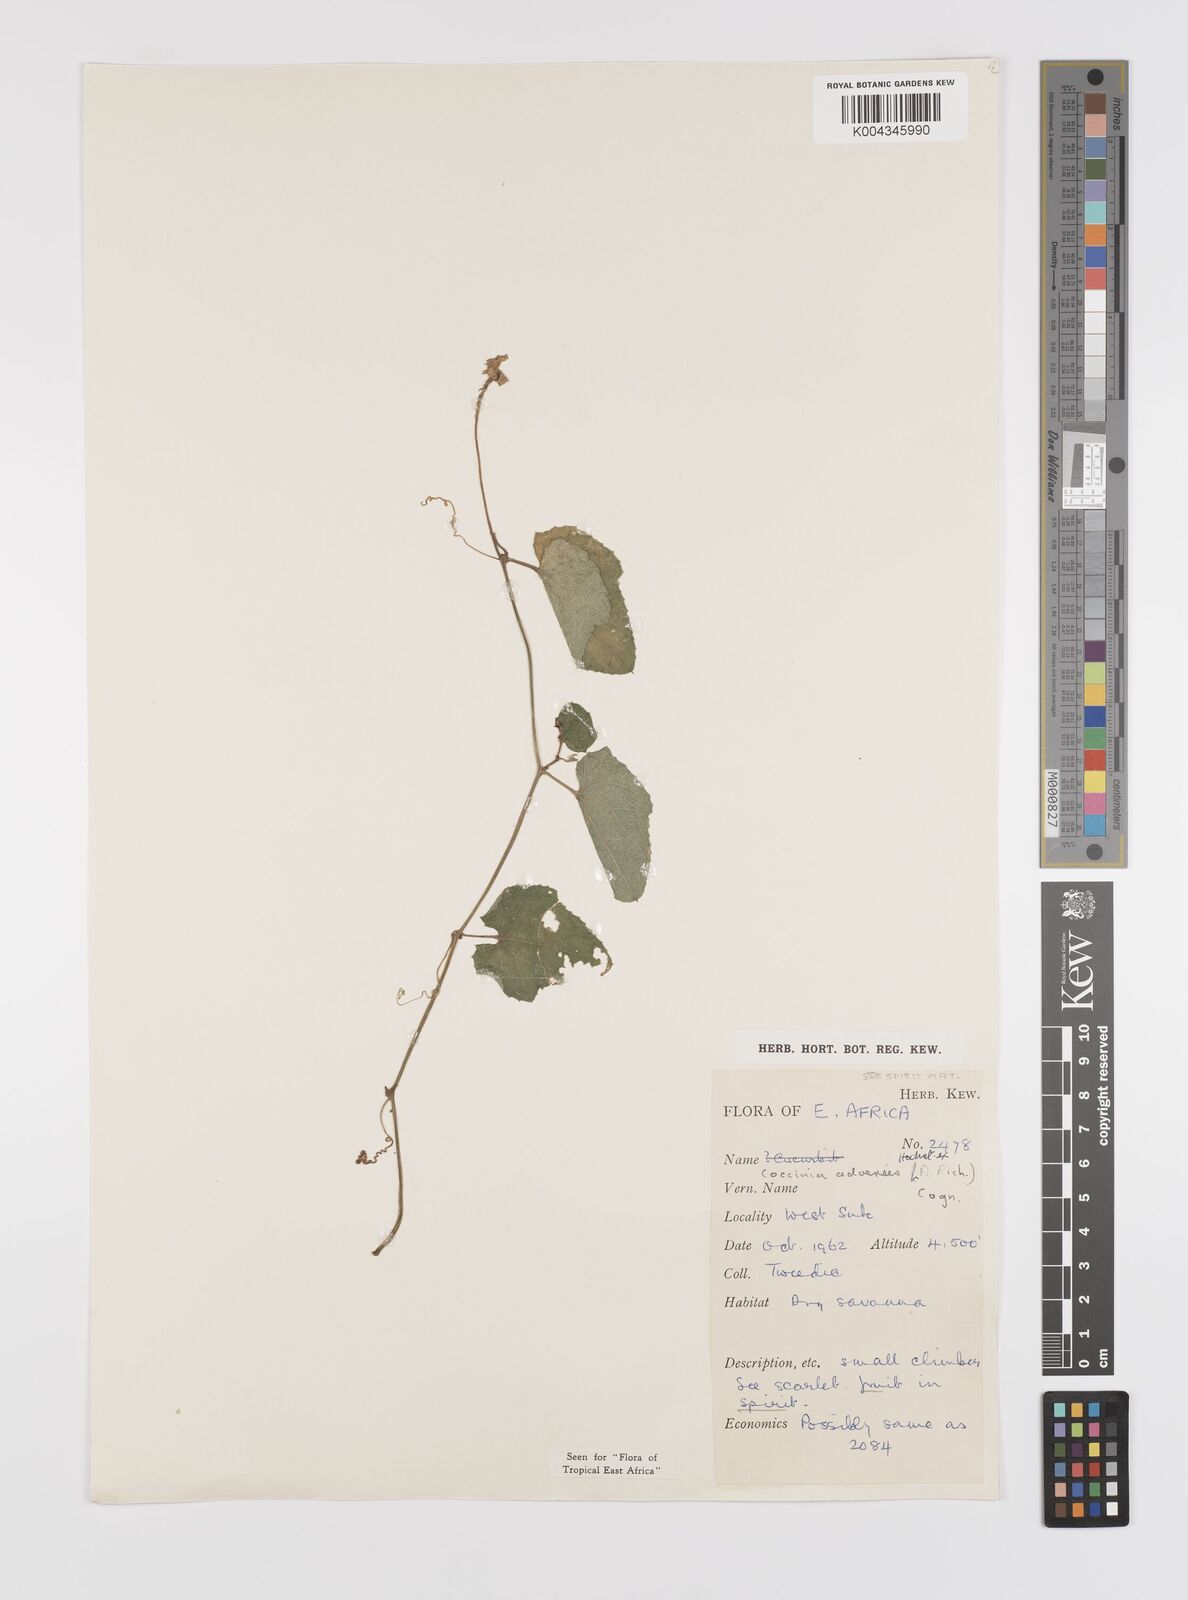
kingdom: Plantae
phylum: Tracheophyta
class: Magnoliopsida
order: Cucurbitales
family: Cucurbitaceae
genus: Coccinia
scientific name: Coccinia adoensis
